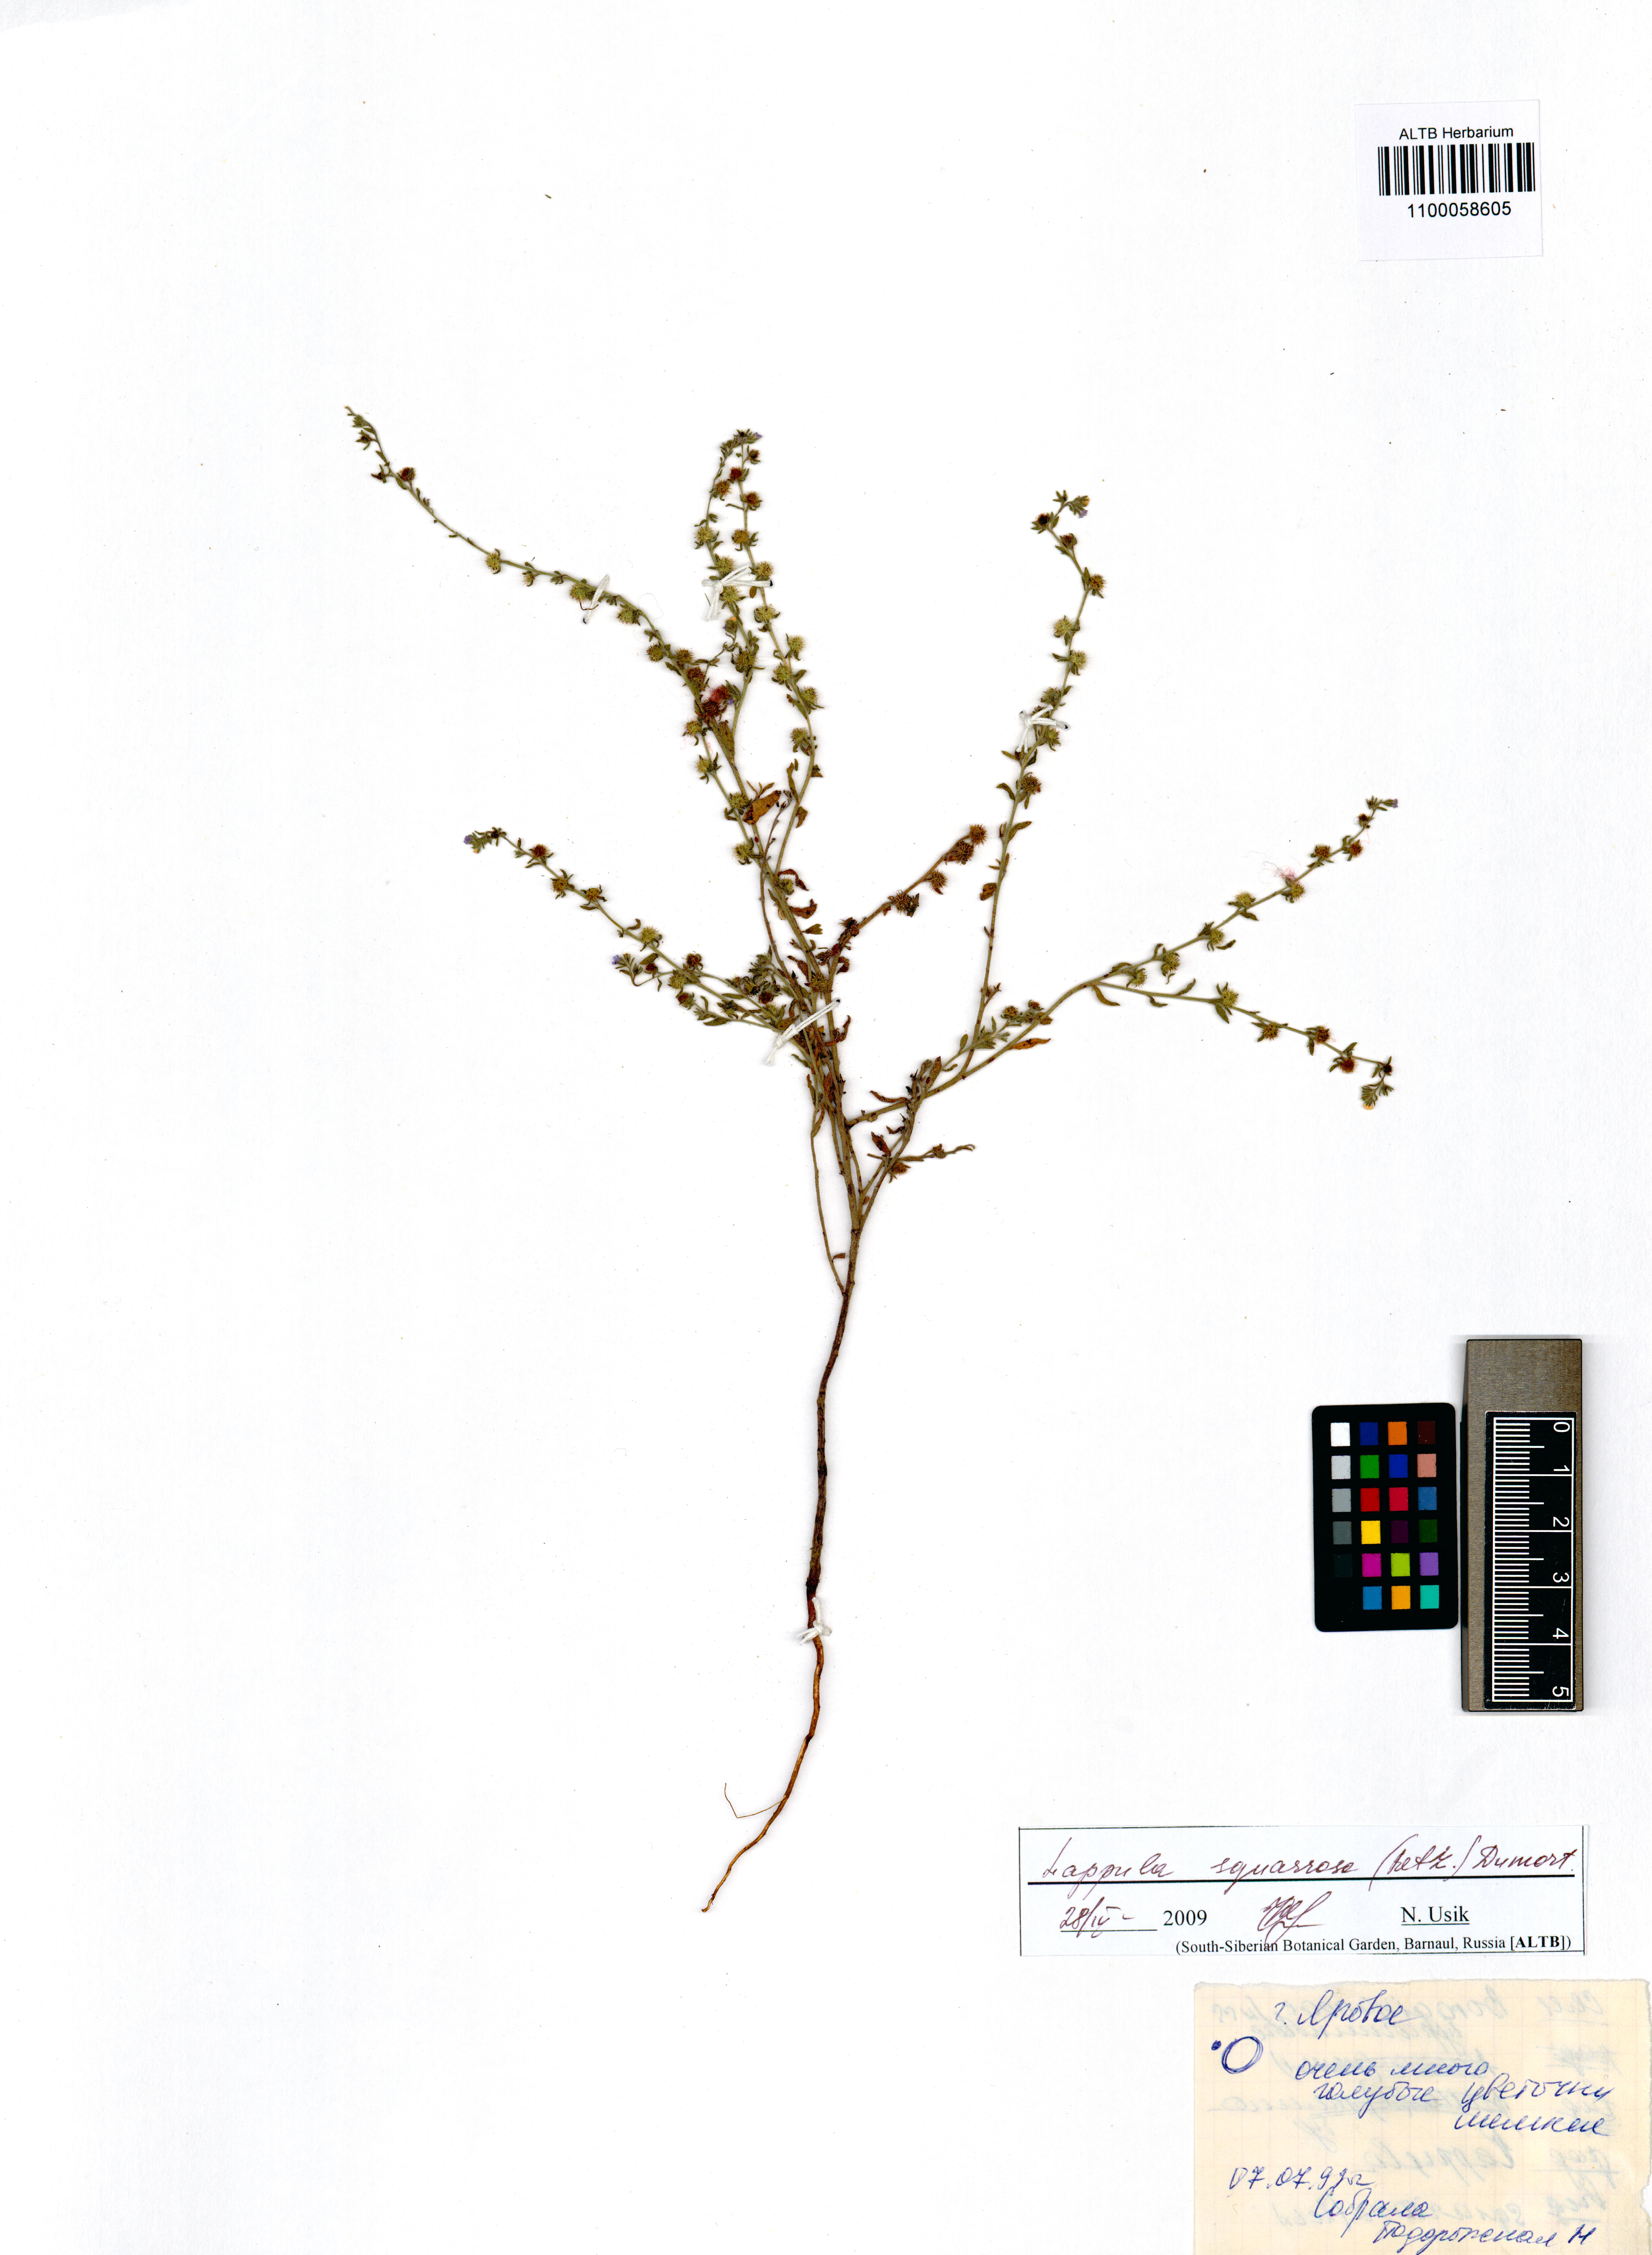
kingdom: Plantae
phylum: Tracheophyta
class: Magnoliopsida
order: Boraginales
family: Boraginaceae
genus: Lappula
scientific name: Lappula squarrosa
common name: European stickseed
